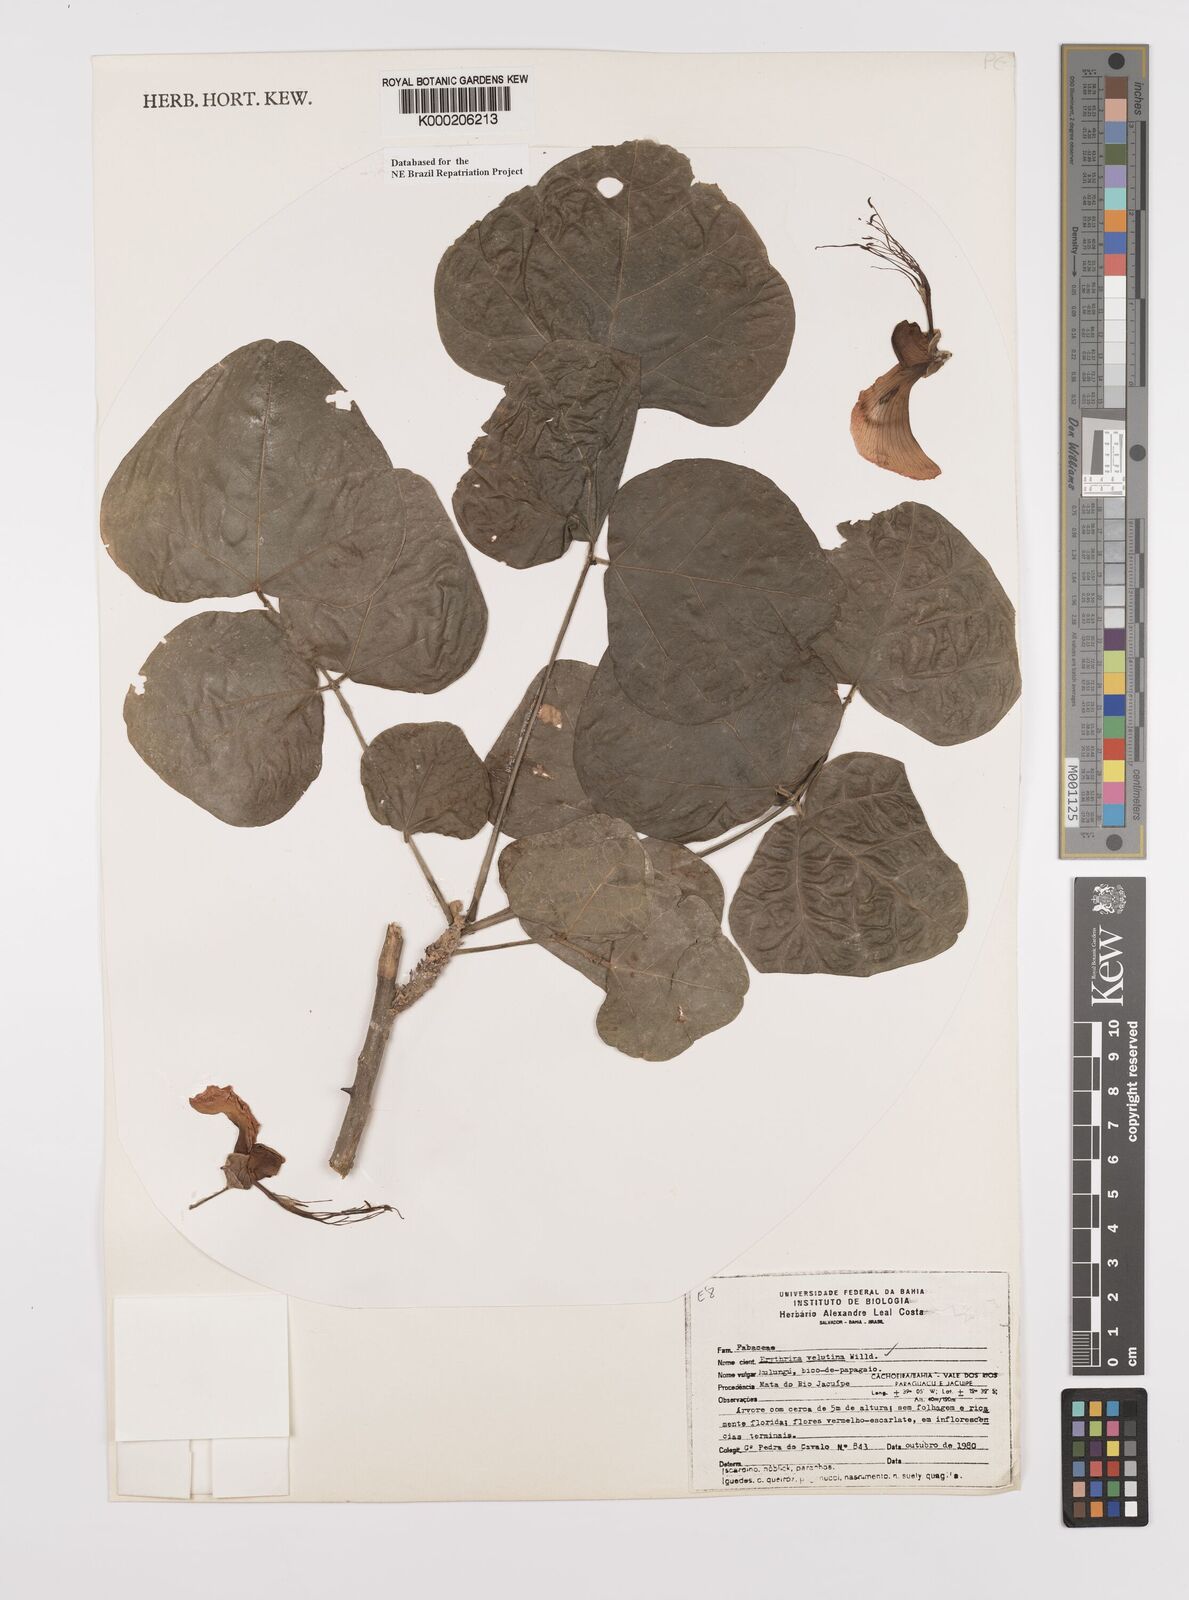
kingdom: Plantae
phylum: Tracheophyta
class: Magnoliopsida
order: Fabales
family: Fabaceae
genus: Erythrina
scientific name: Erythrina velutina
